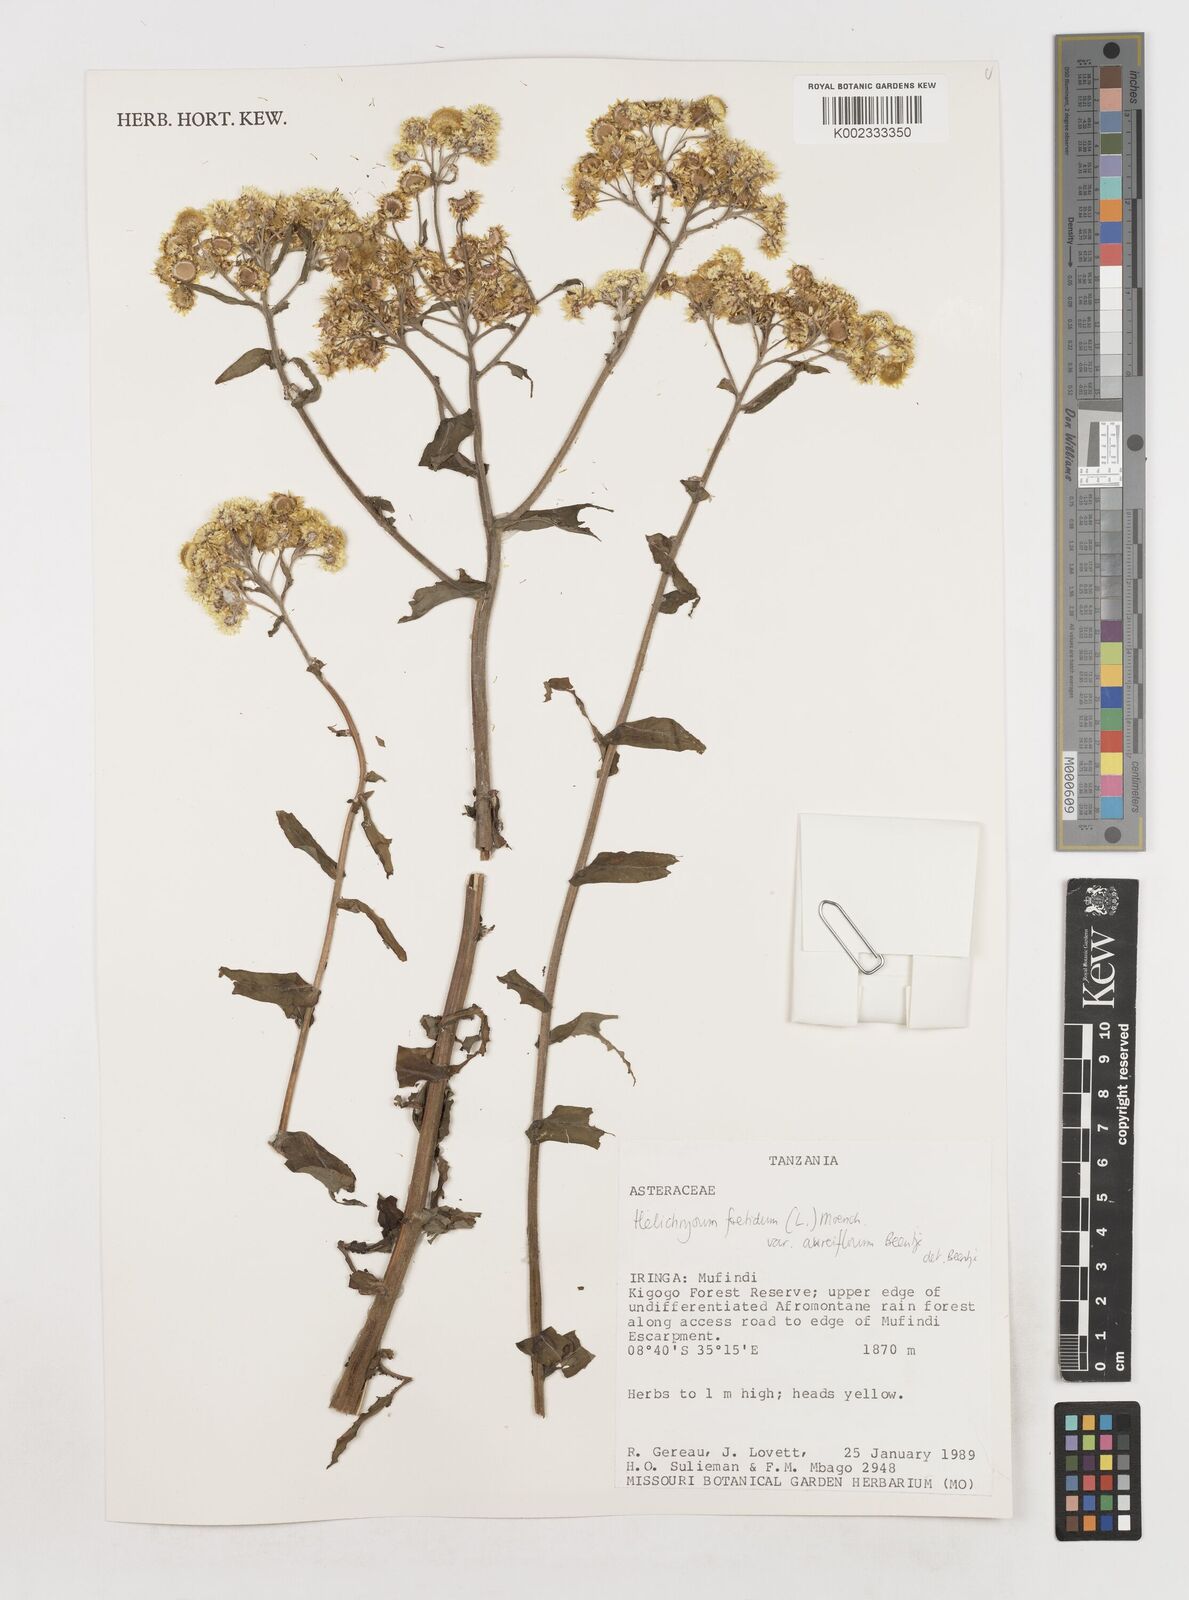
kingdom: Plantae
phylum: Tracheophyta
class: Magnoliopsida
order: Asterales
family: Asteraceae
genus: Helichrysum
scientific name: Helichrysum foetidum
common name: Stinking everlasting
